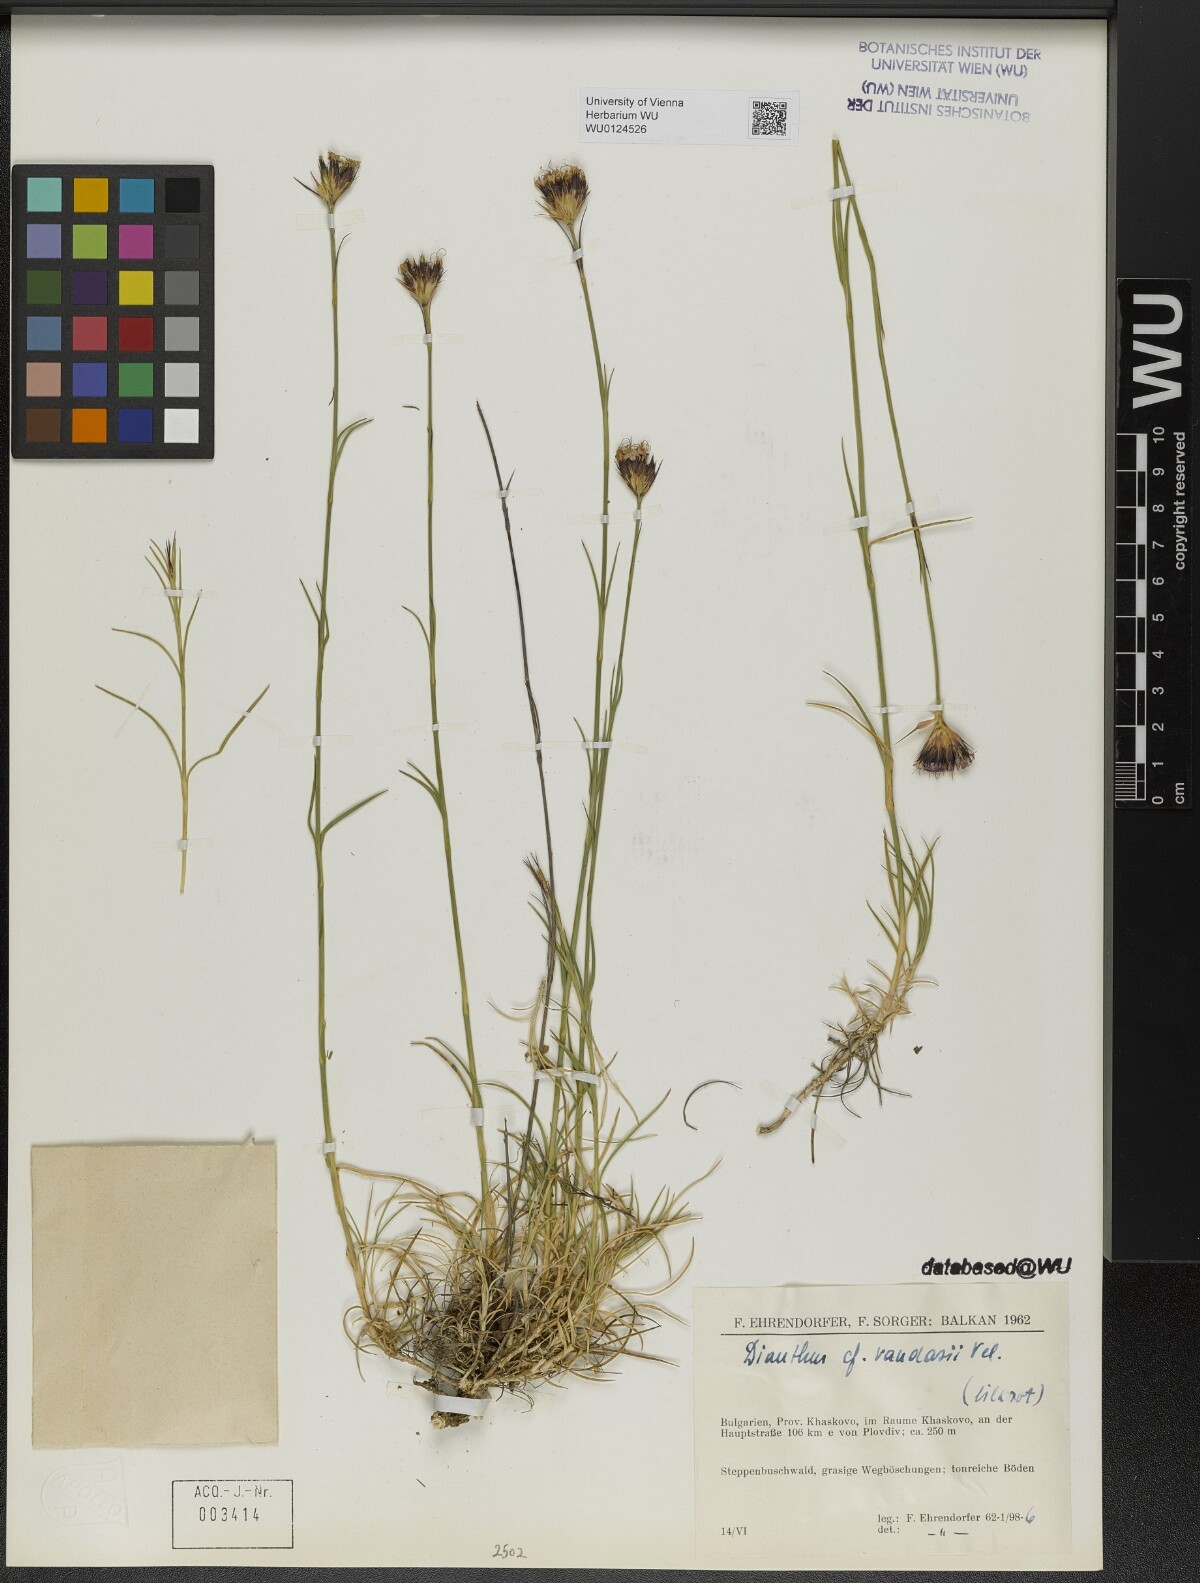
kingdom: Plantae
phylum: Tracheophyta
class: Magnoliopsida
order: Caryophyllales
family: Caryophyllaceae
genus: Dianthus
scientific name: Dianthus giganteus
